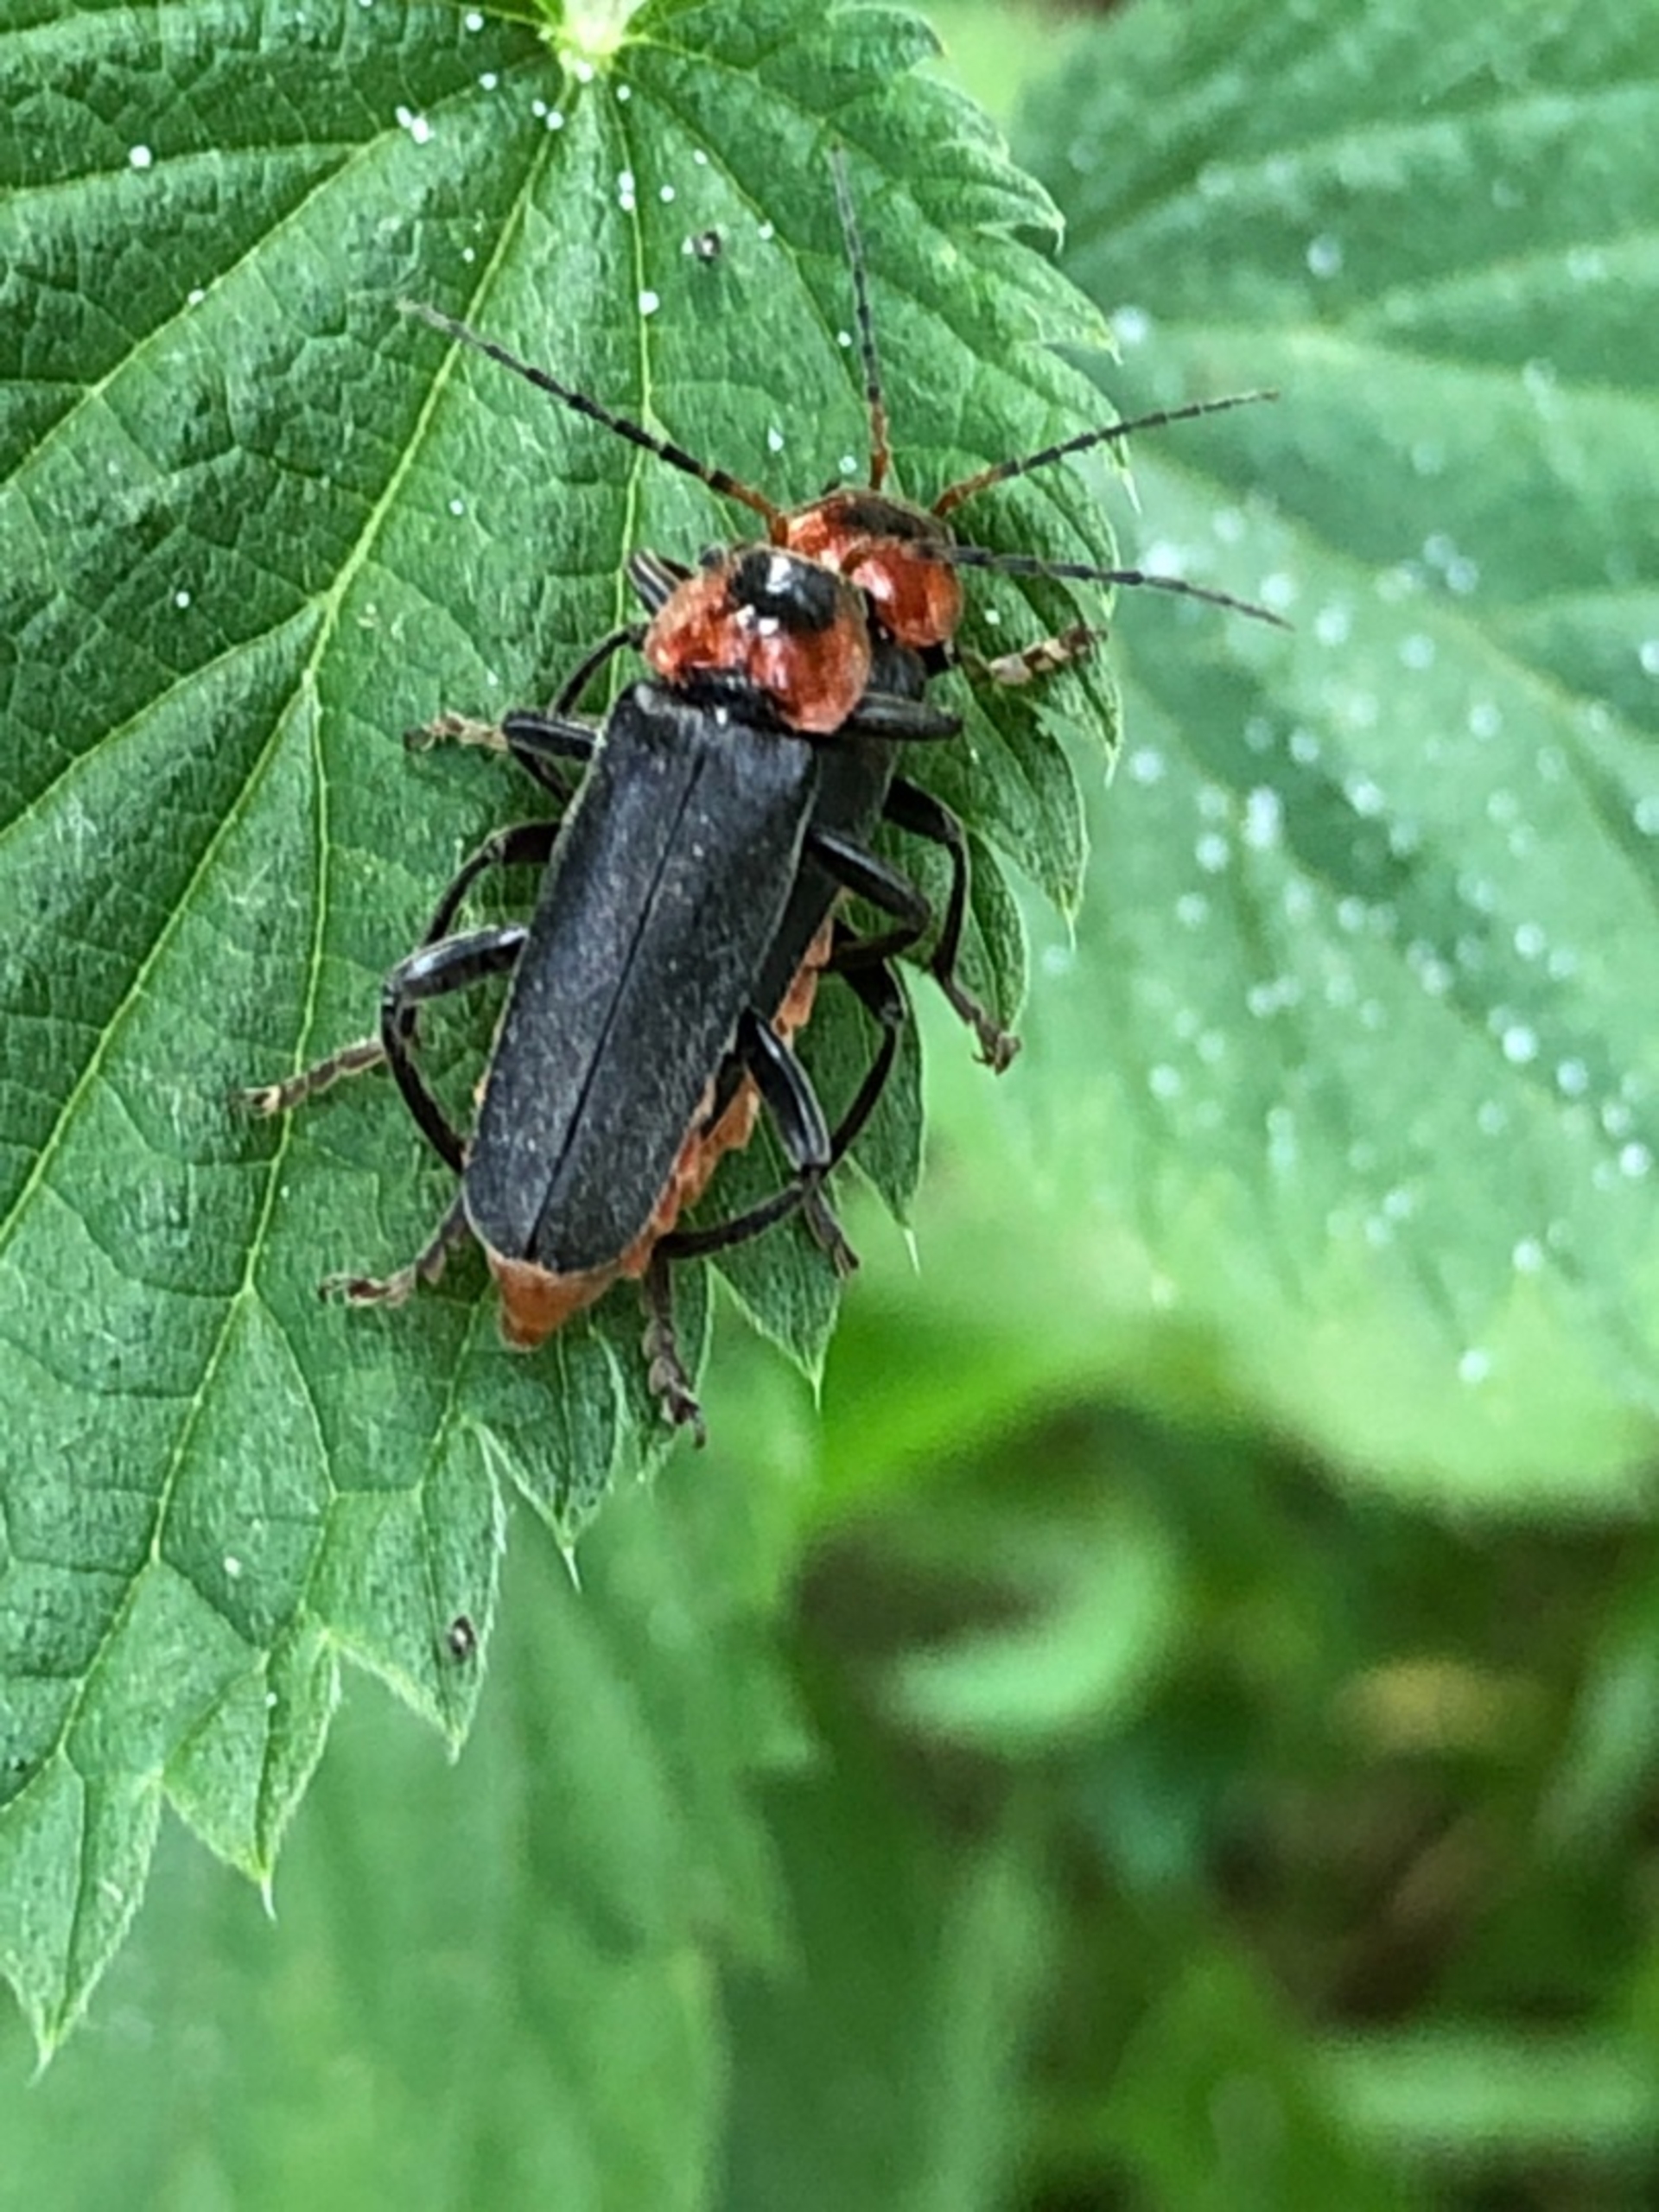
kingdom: Animalia
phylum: Arthropoda
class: Insecta
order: Coleoptera
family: Cantharidae
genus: Cantharis
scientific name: Cantharis fusca
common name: Stor blødvinge
